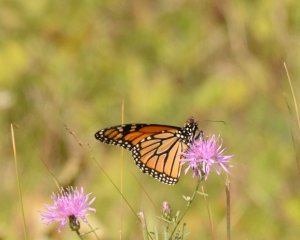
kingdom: Animalia
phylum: Arthropoda
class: Insecta
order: Lepidoptera
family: Nymphalidae
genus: Danaus
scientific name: Danaus plexippus
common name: Monarch
